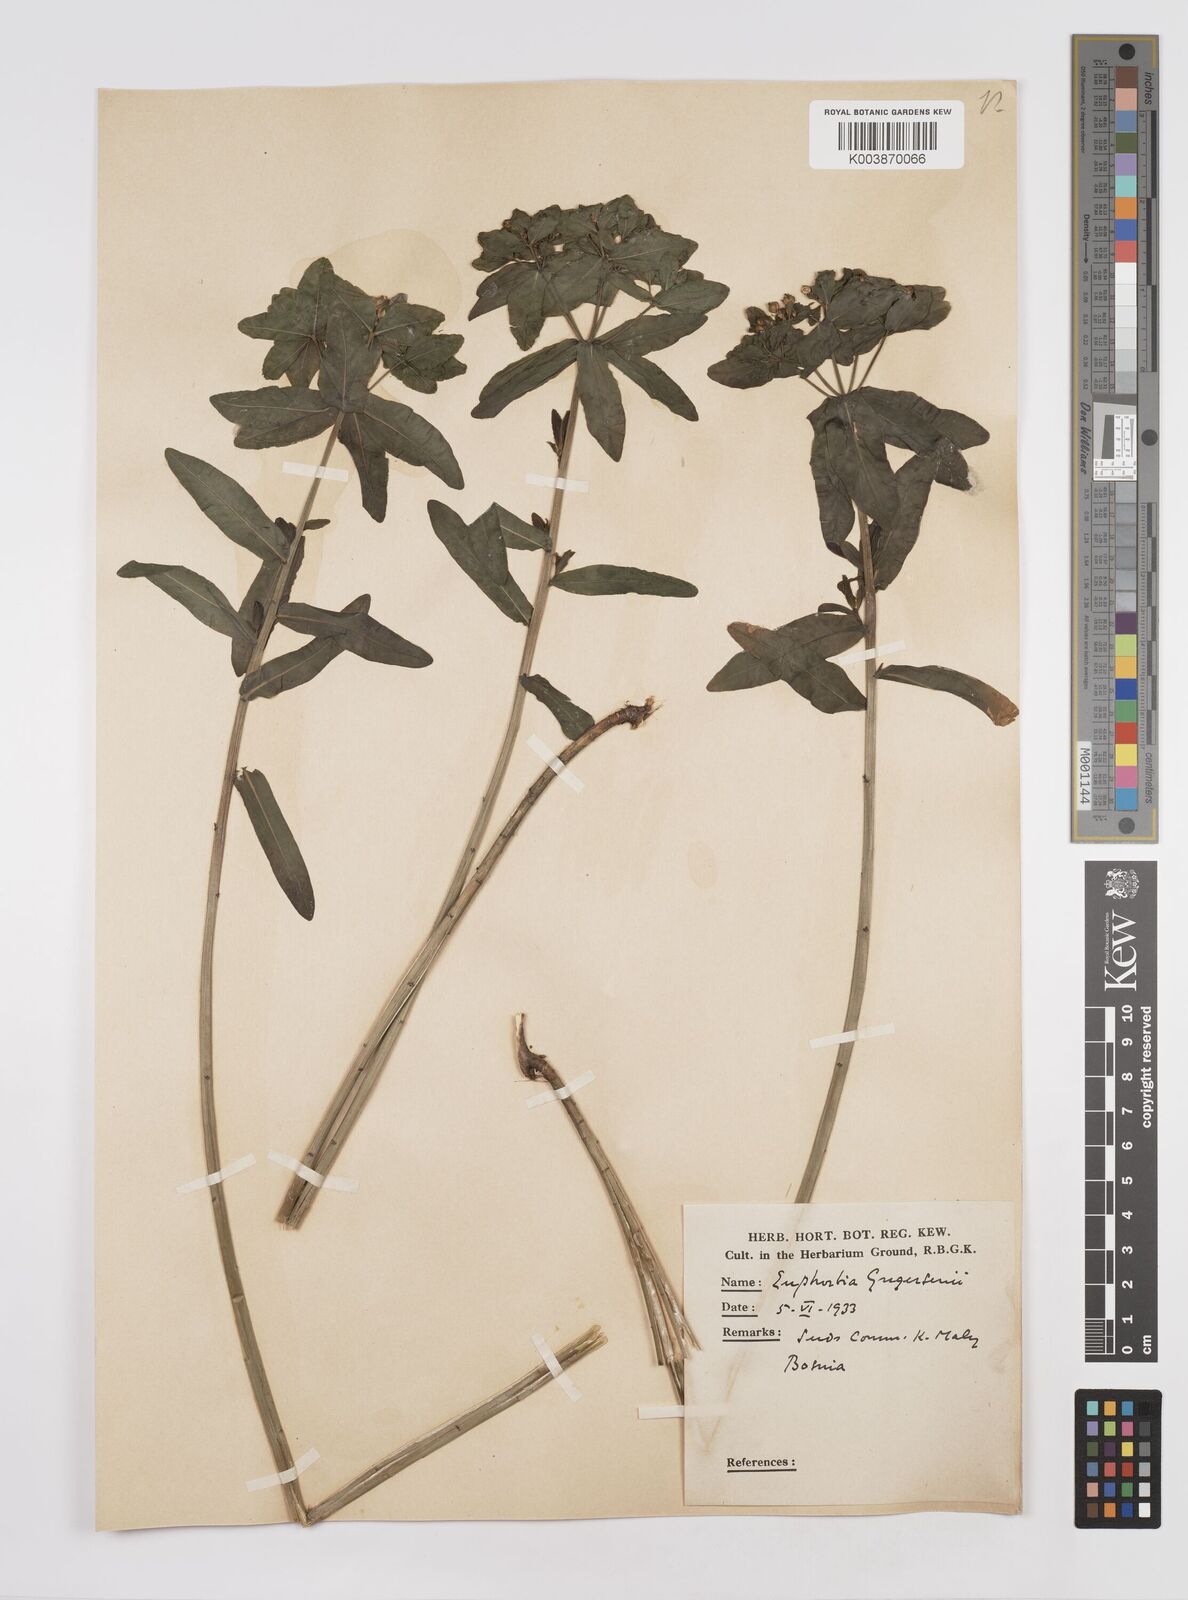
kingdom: Plantae
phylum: Tracheophyta
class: Magnoliopsida
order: Malpighiales
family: Euphorbiaceae
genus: Euphorbia
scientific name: Euphorbia gregersenii
